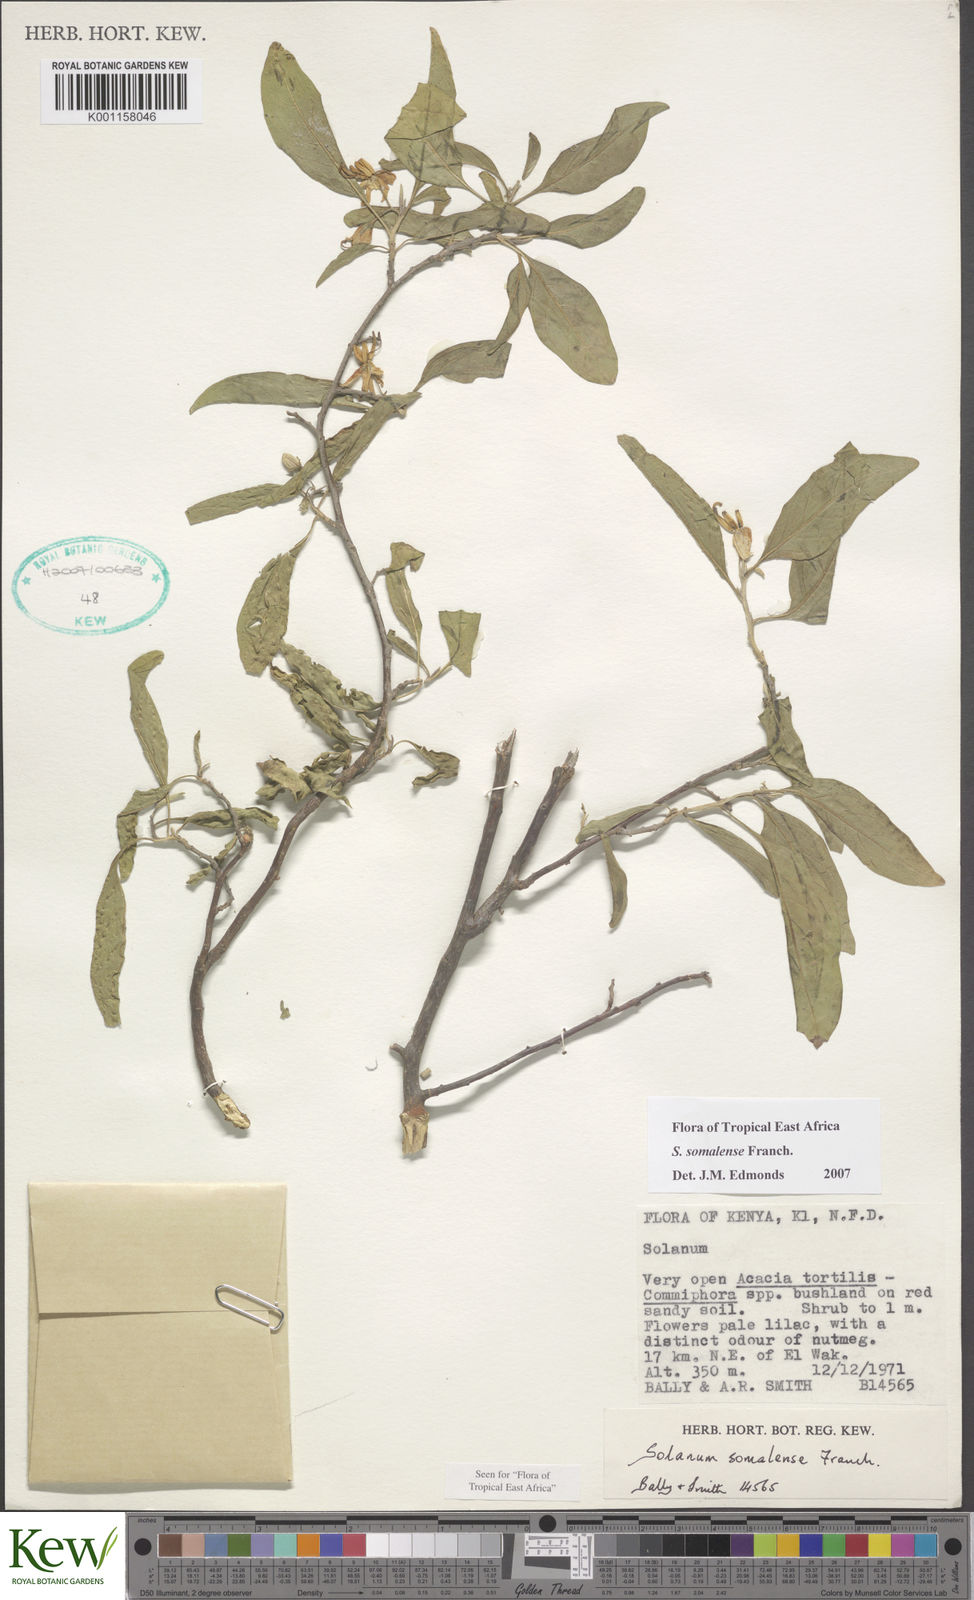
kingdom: Plantae
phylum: Tracheophyta
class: Magnoliopsida
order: Solanales
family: Solanaceae
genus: Solanum
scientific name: Solanum somalense
